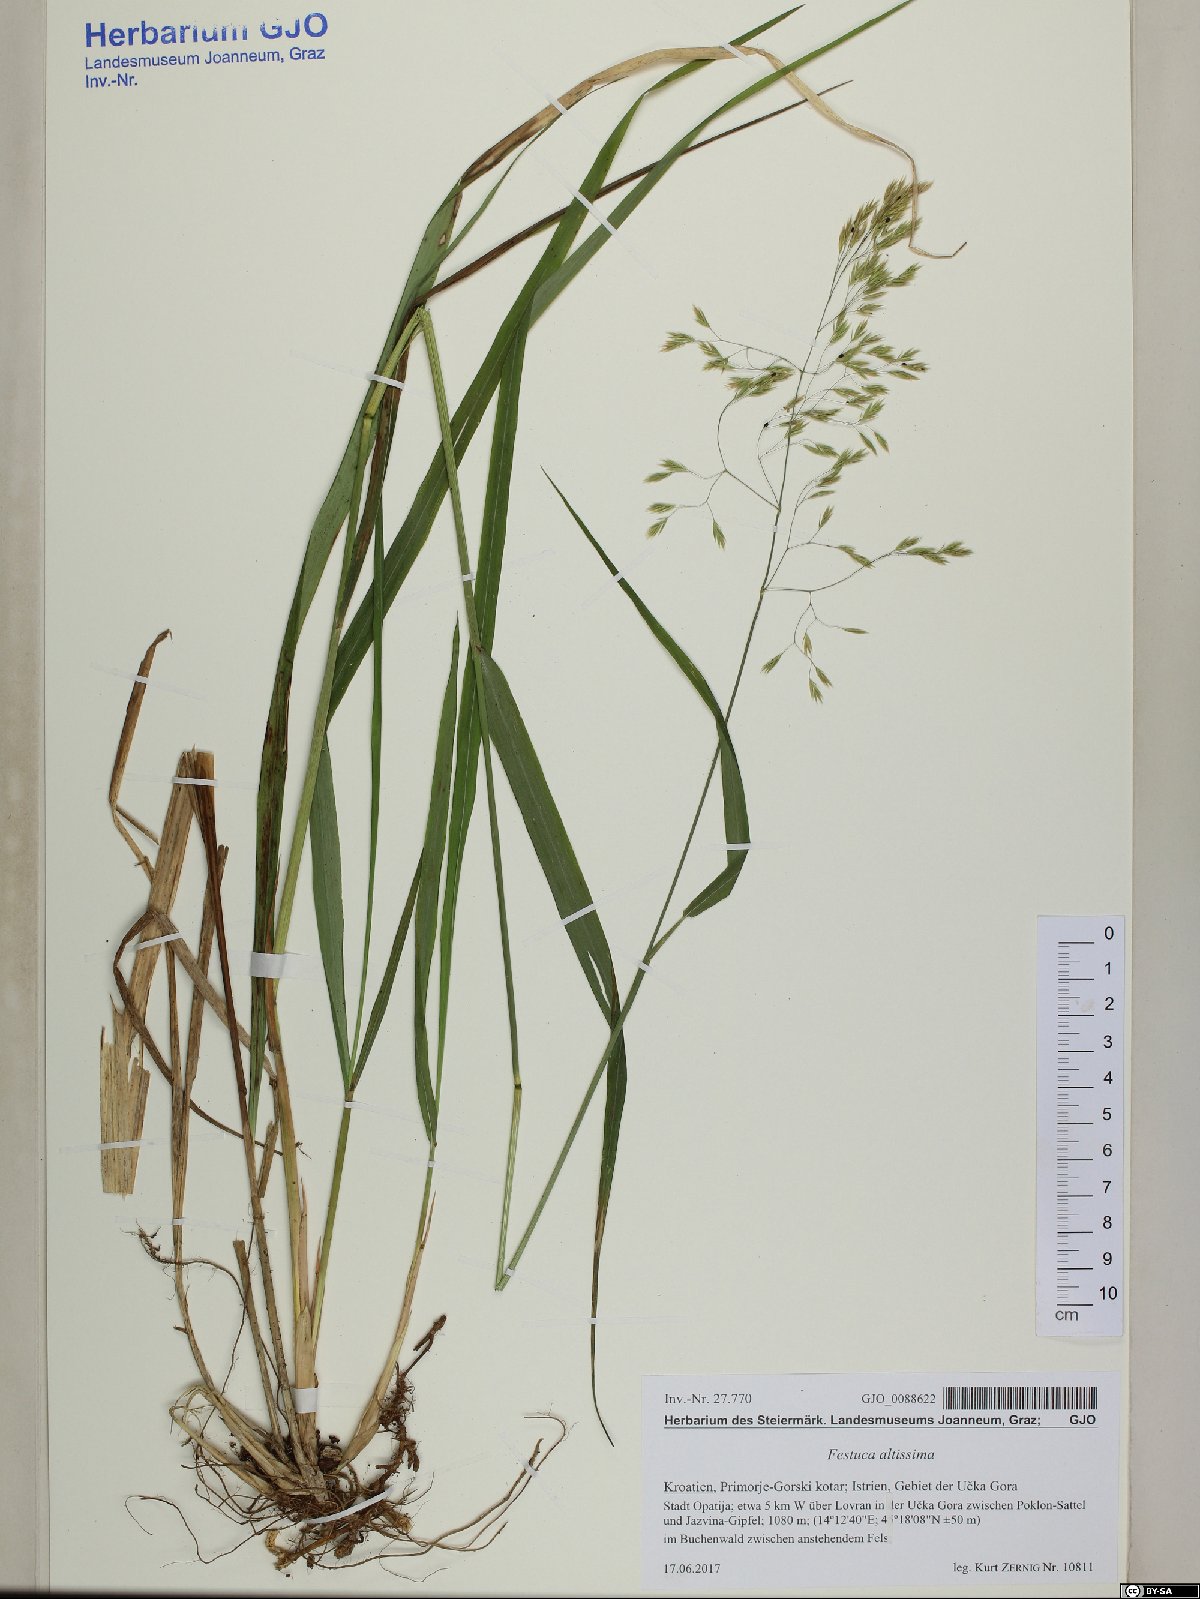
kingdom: Plantae
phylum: Tracheophyta
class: Liliopsida
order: Poales
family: Poaceae
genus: Festuca
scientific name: Festuca altissima
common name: Wood fescue
